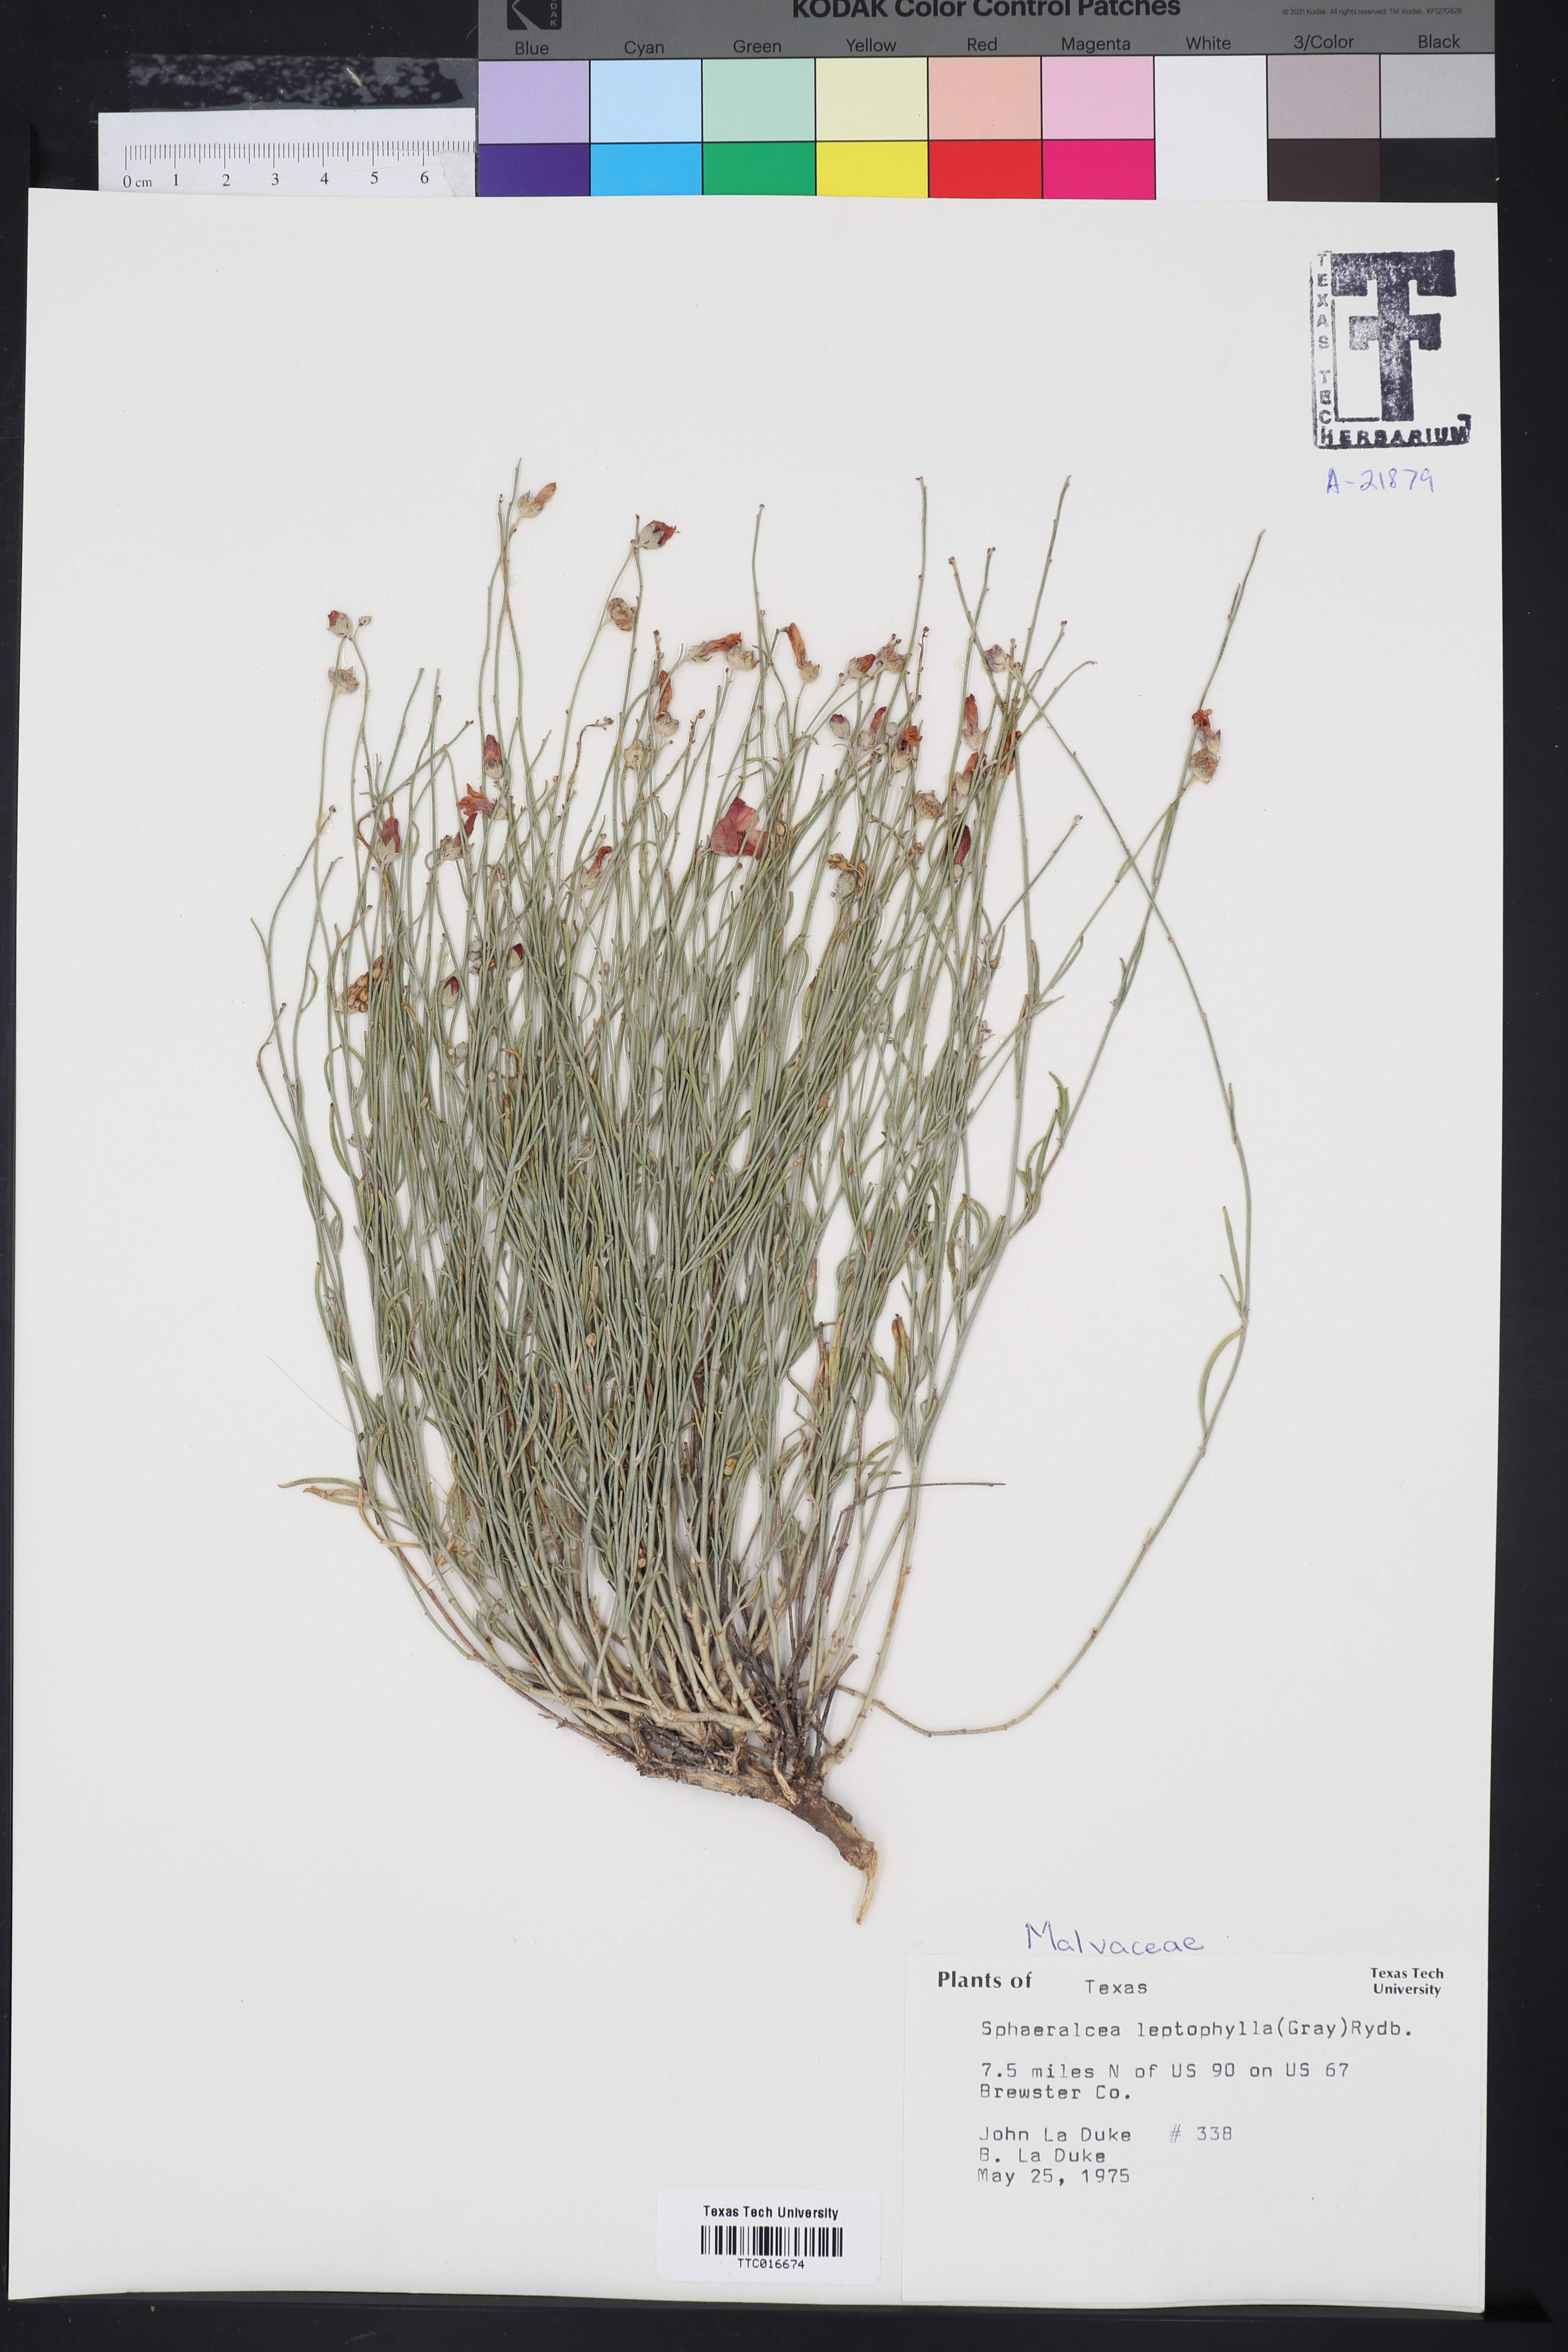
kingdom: Plantae
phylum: Tracheophyta
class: Magnoliopsida
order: Malvales
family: Malvaceae
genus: Sphaeralcea
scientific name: Sphaeralcea leptophylla
